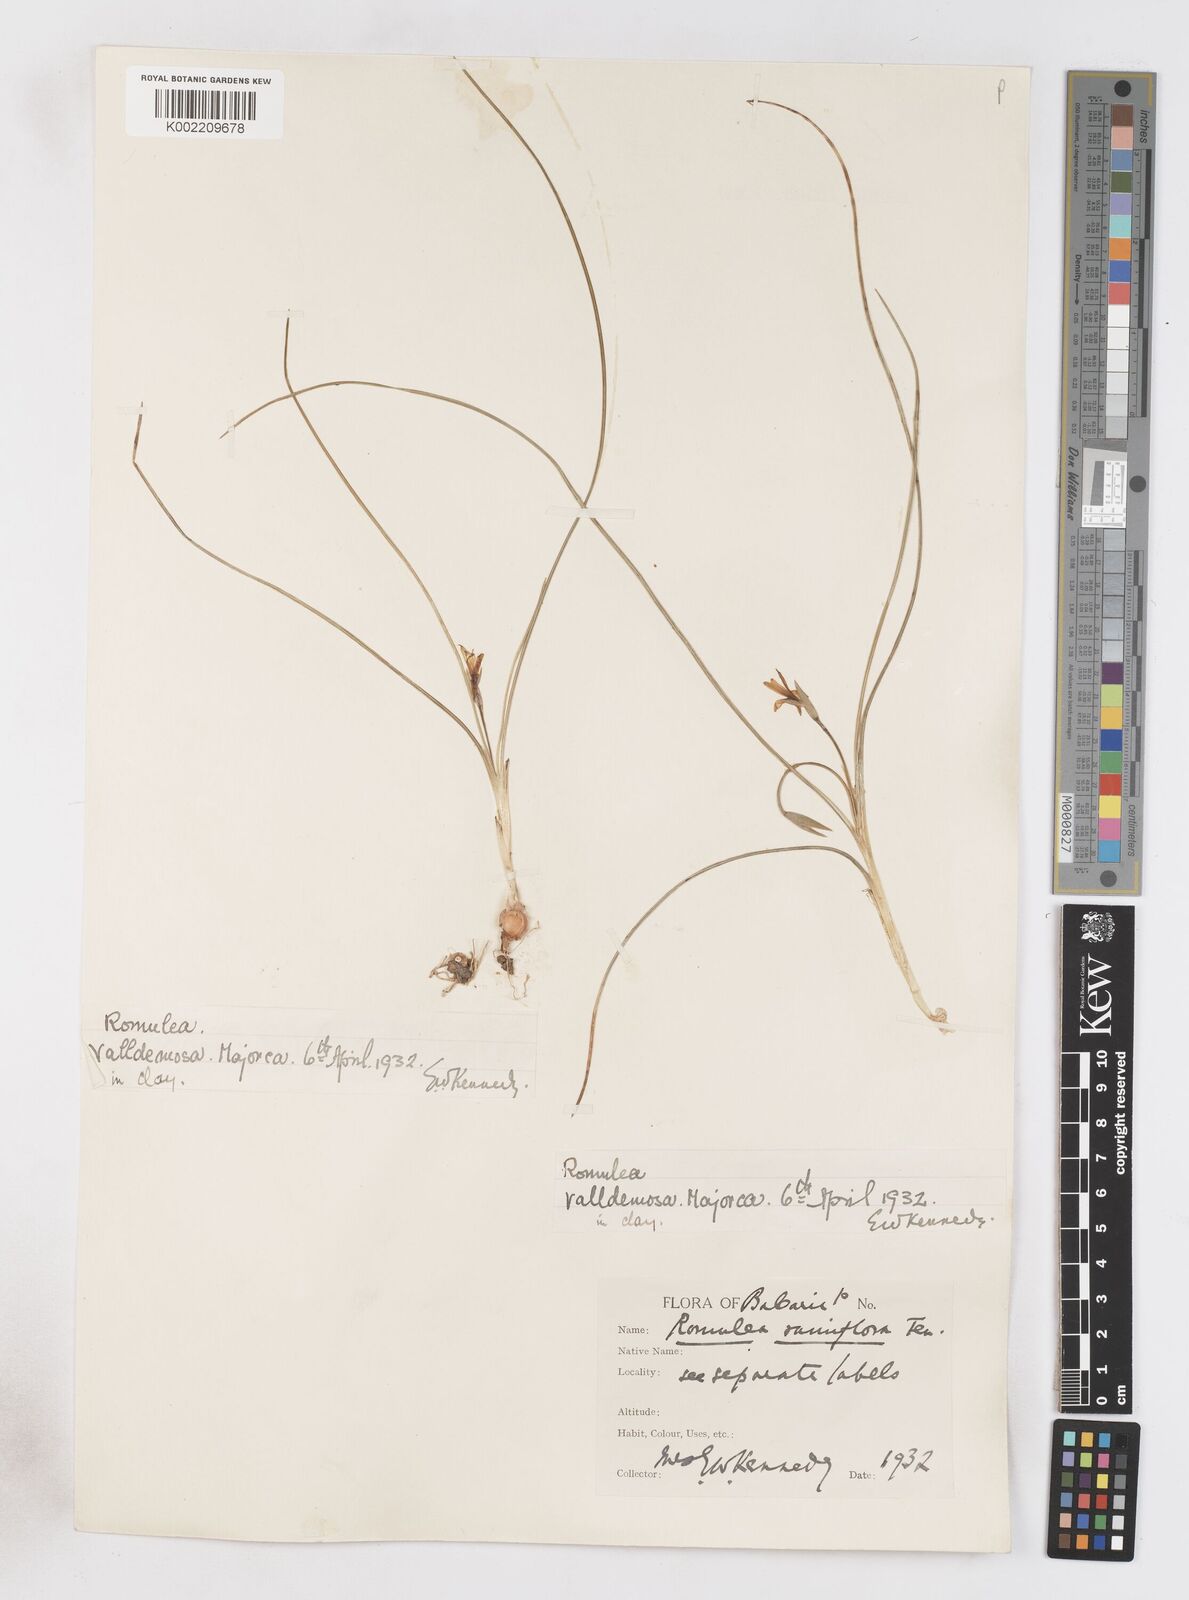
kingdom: Plantae
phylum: Tracheophyta
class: Liliopsida
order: Asparagales
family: Iridaceae
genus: Romulea
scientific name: Romulea ramiflora
